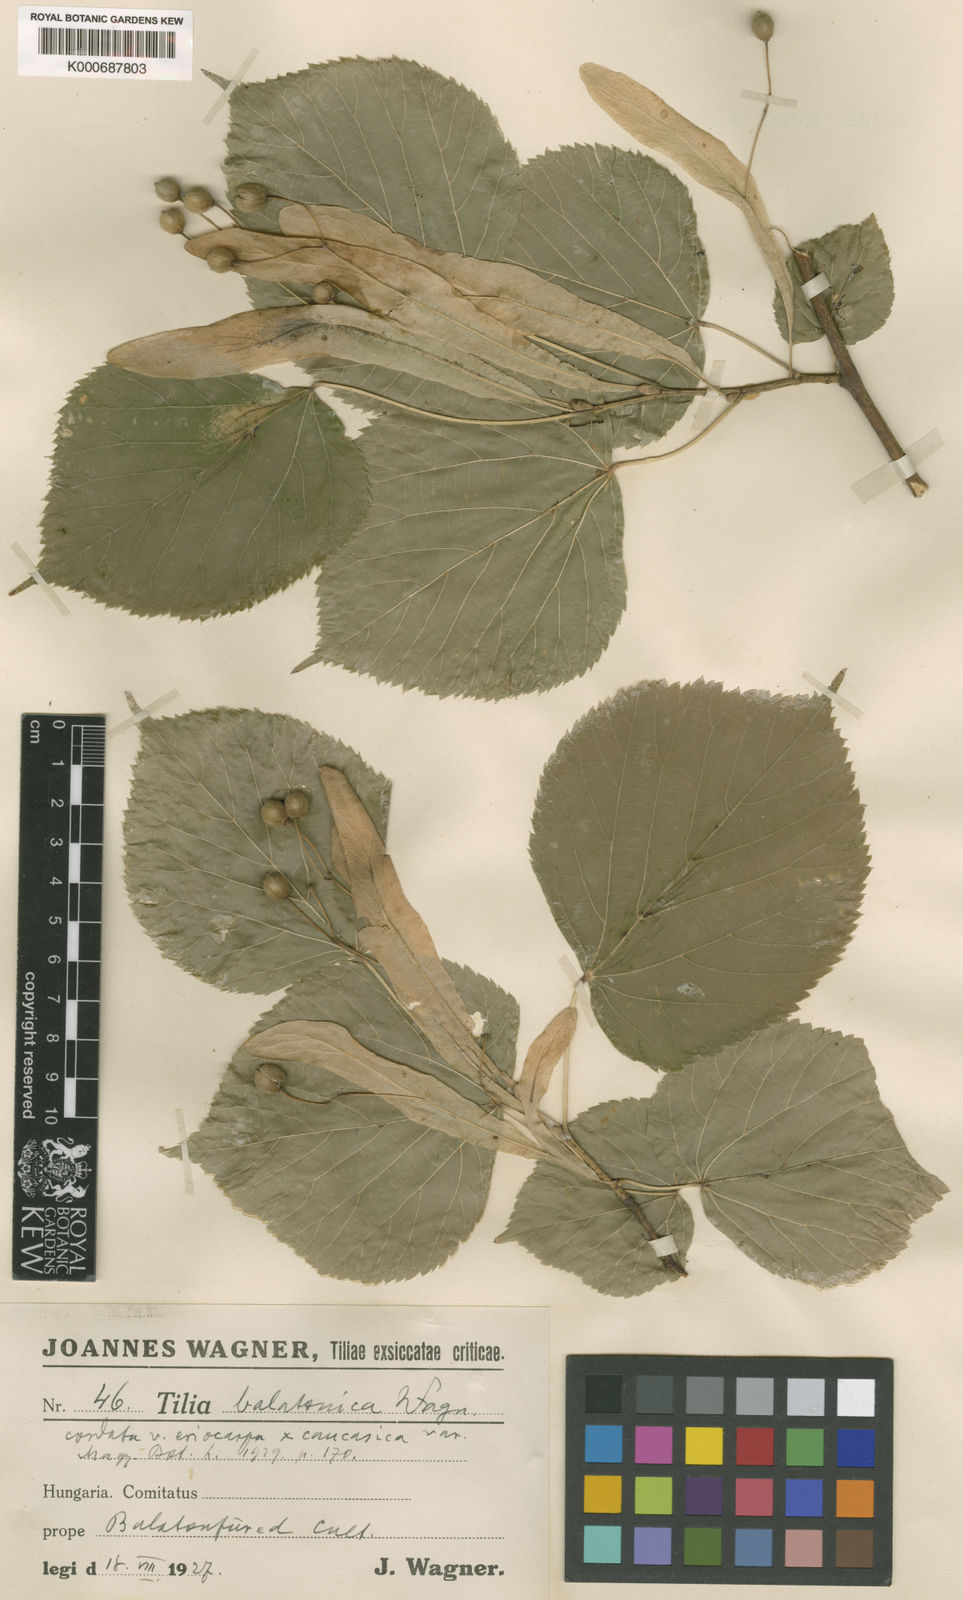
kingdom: Plantae
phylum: Tracheophyta
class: Magnoliopsida
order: Malvales
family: Malvaceae
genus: Tilia
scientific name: Tilia
